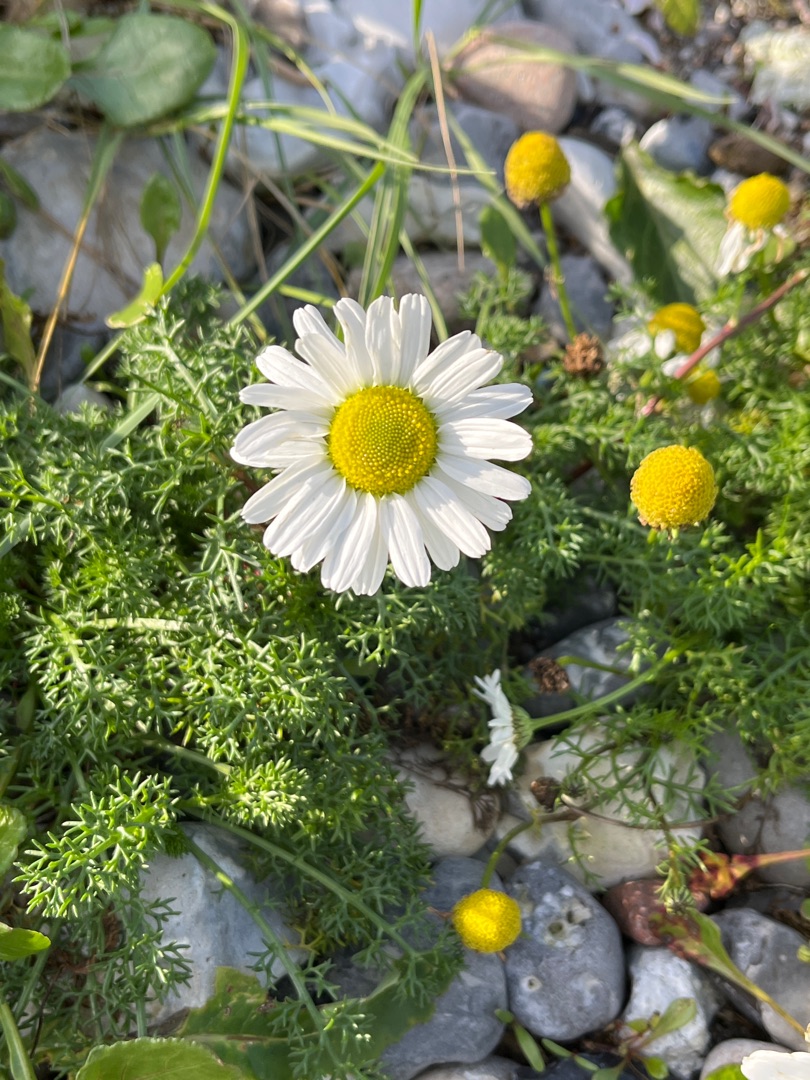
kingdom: Plantae
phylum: Tracheophyta
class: Magnoliopsida
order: Asterales
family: Asteraceae
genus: Tripleurospermum
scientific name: Tripleurospermum maritimum
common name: Strand-kamille
